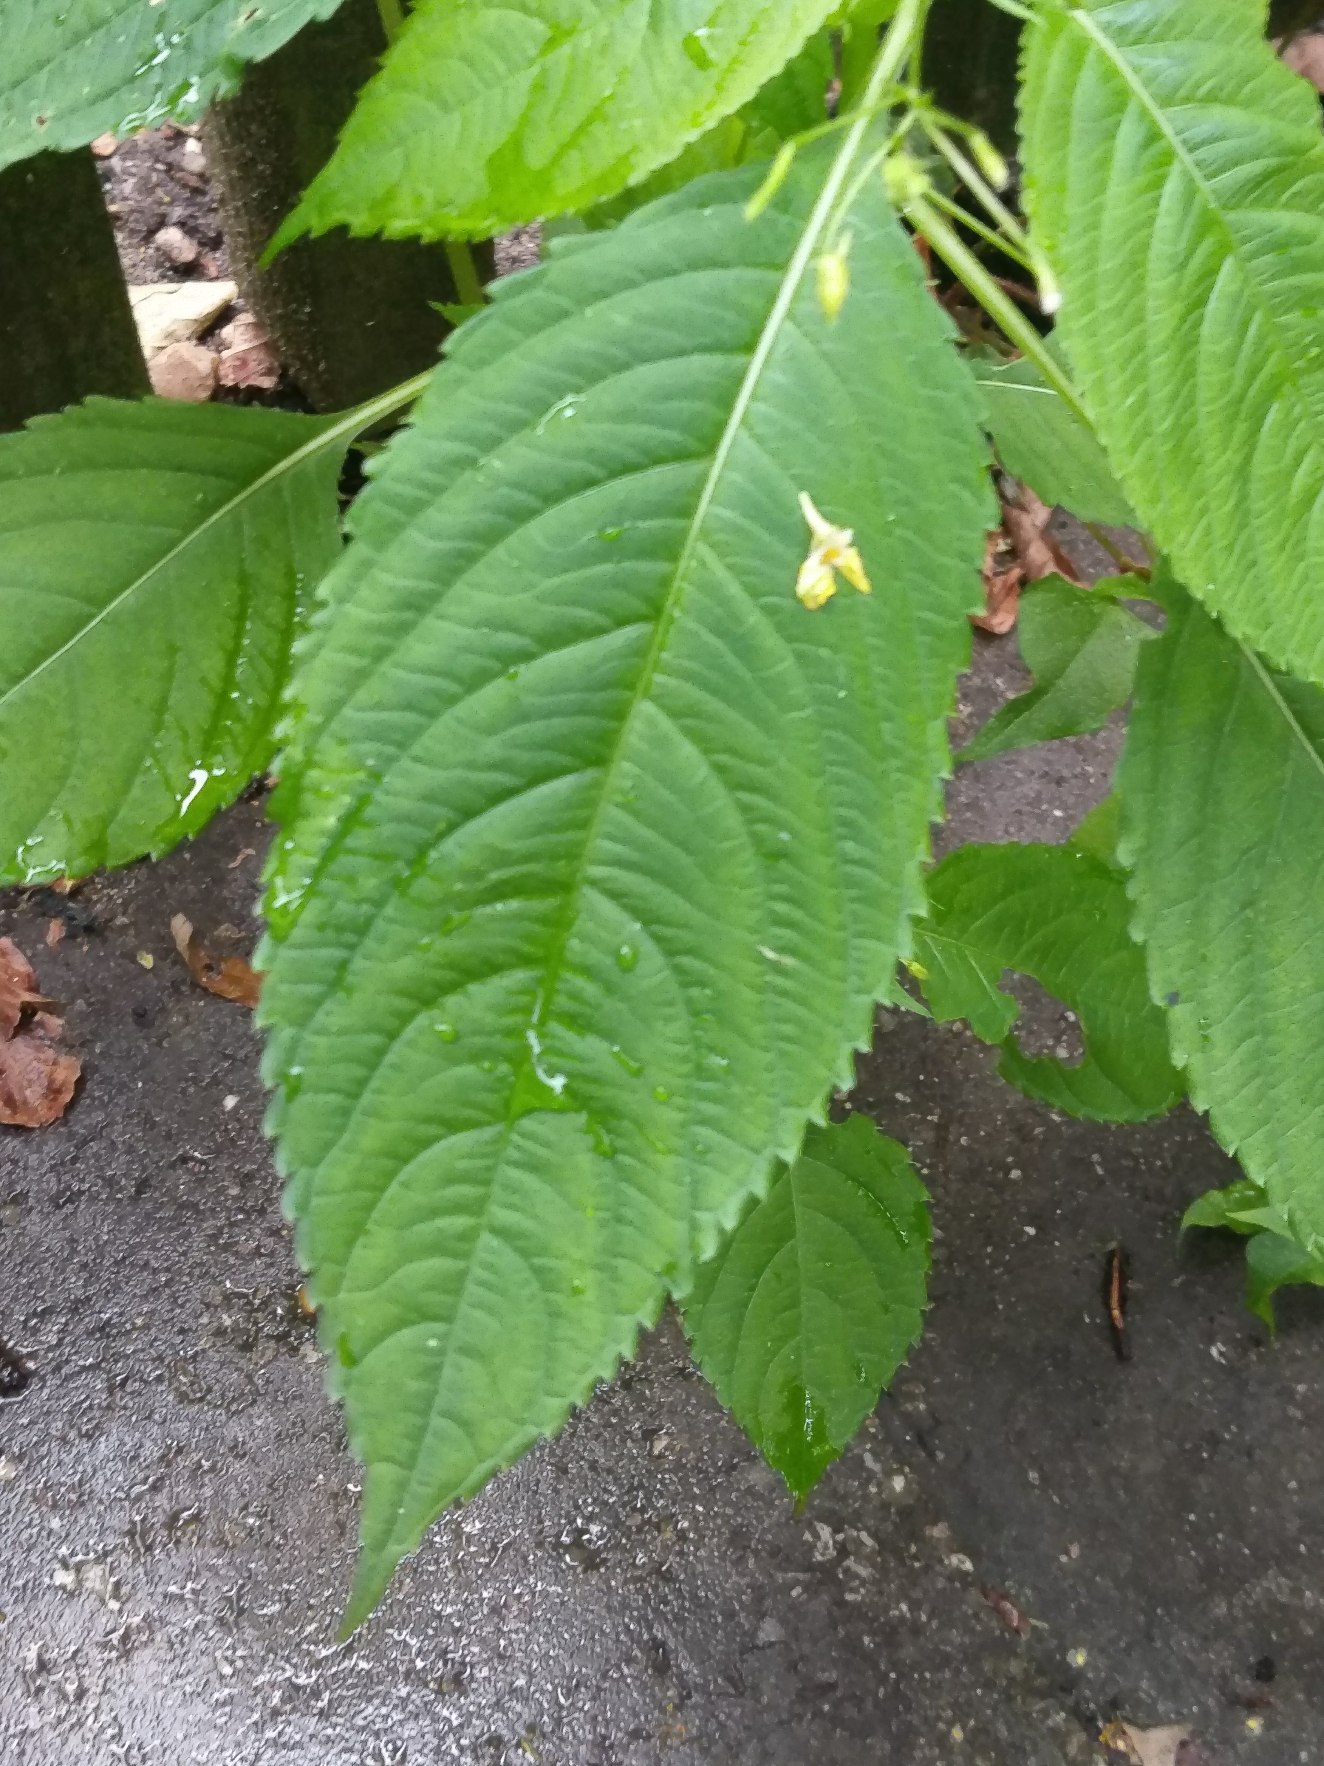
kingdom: Plantae
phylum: Tracheophyta
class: Magnoliopsida
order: Ericales
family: Balsaminaceae
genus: Impatiens
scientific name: Impatiens parviflora
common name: Småblomstret balsamin
